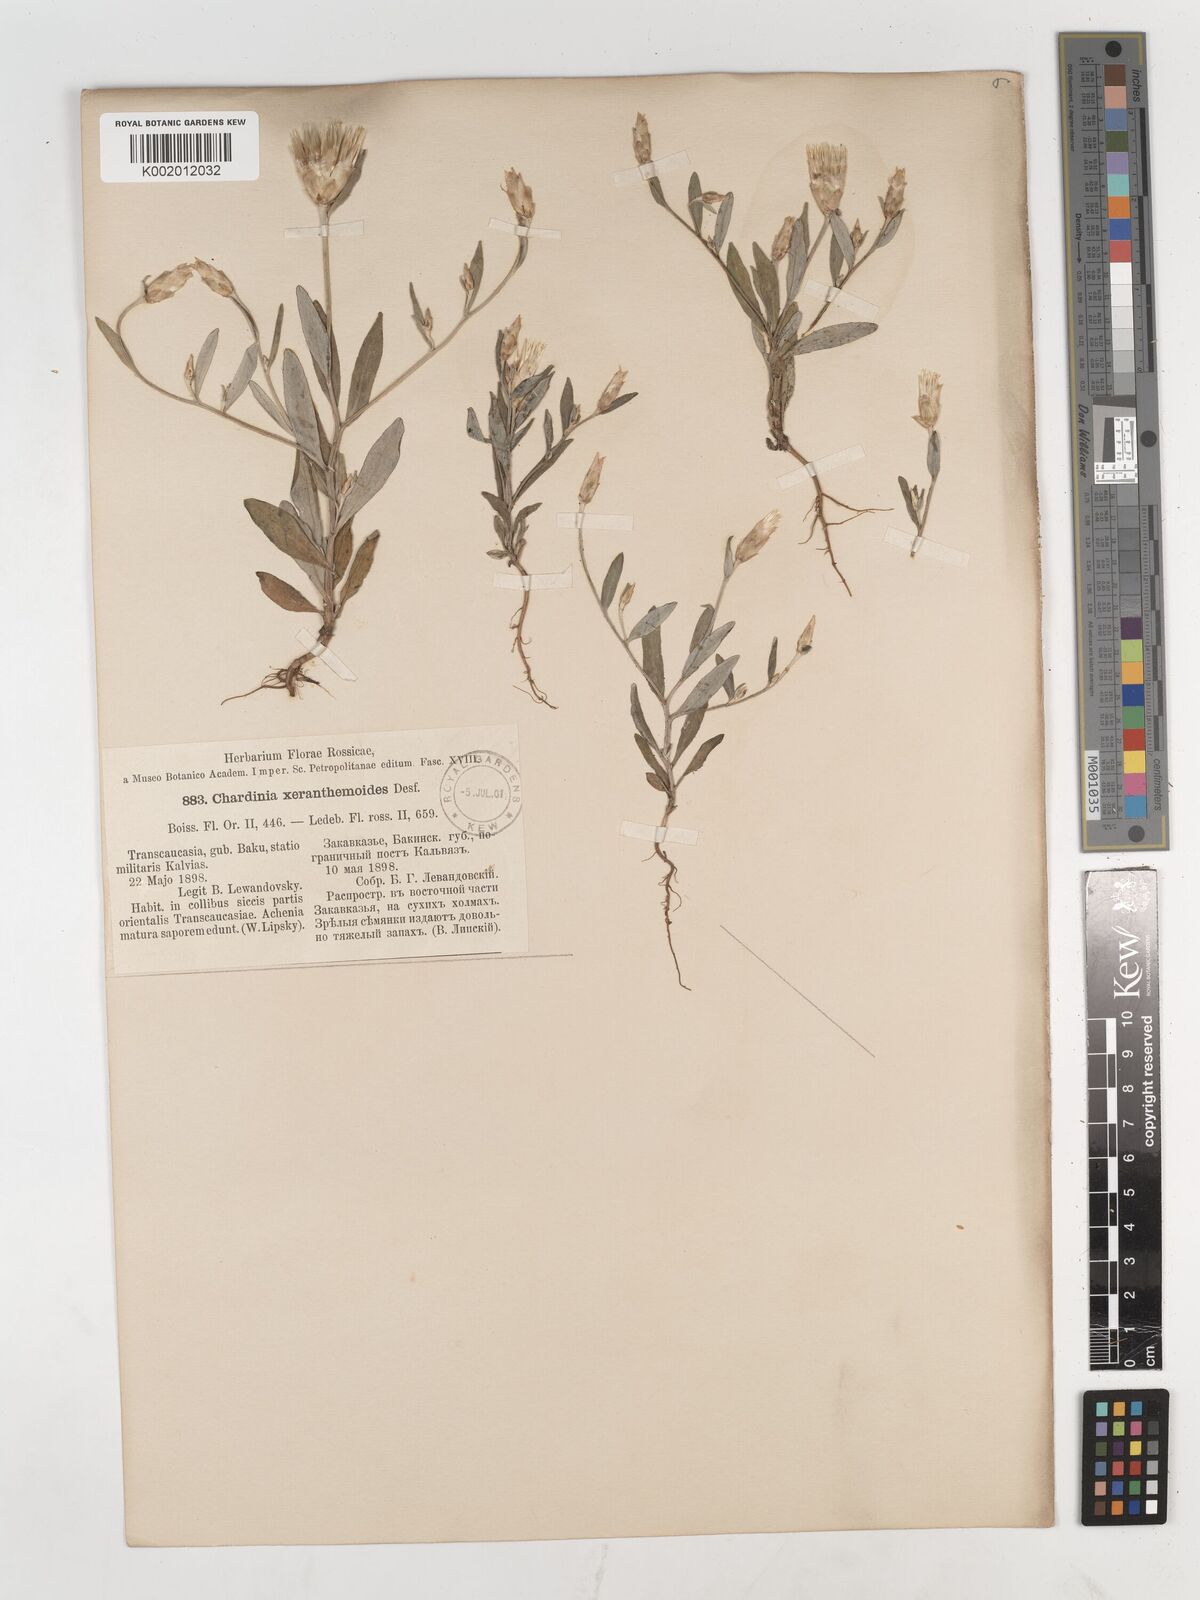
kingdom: Plantae
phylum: Tracheophyta
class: Magnoliopsida
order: Asterales
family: Asteraceae
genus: Chardinia
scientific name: Chardinia orientalis
